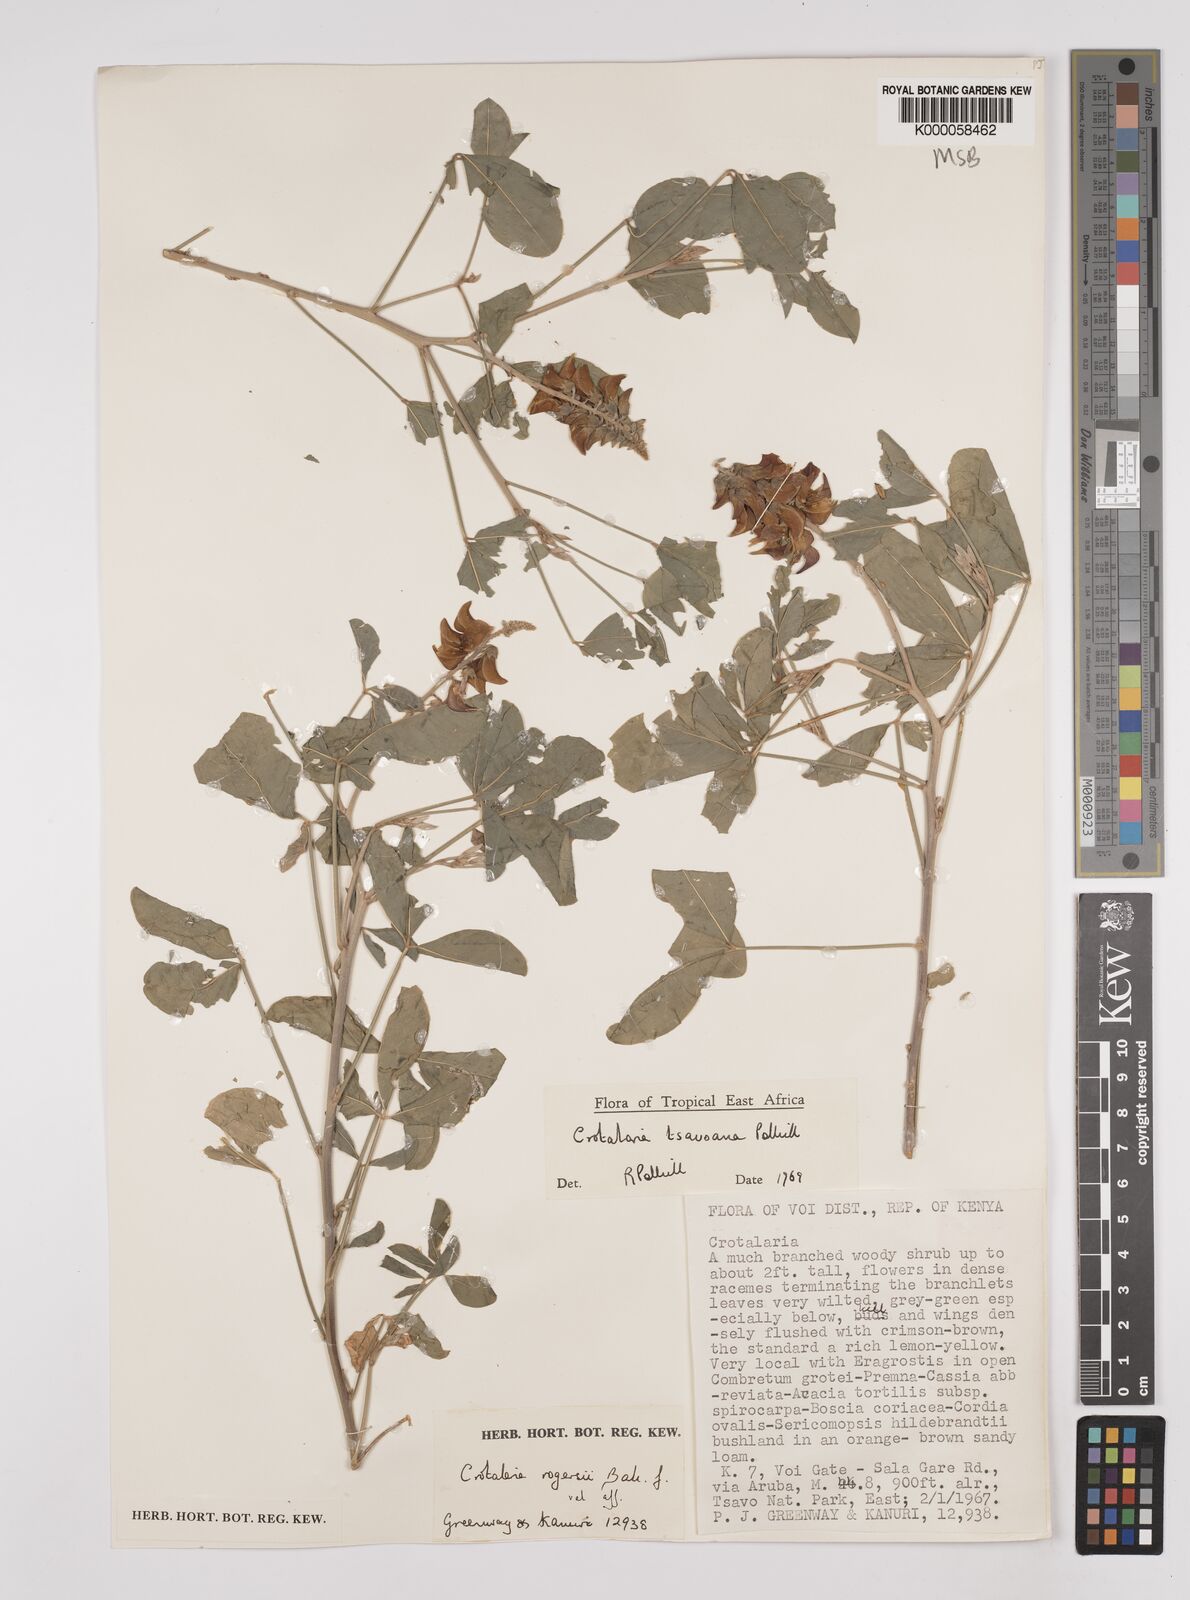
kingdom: Plantae
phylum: Tracheophyta
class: Magnoliopsida
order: Fabales
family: Fabaceae
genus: Crotalaria
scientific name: Crotalaria tsavoana
